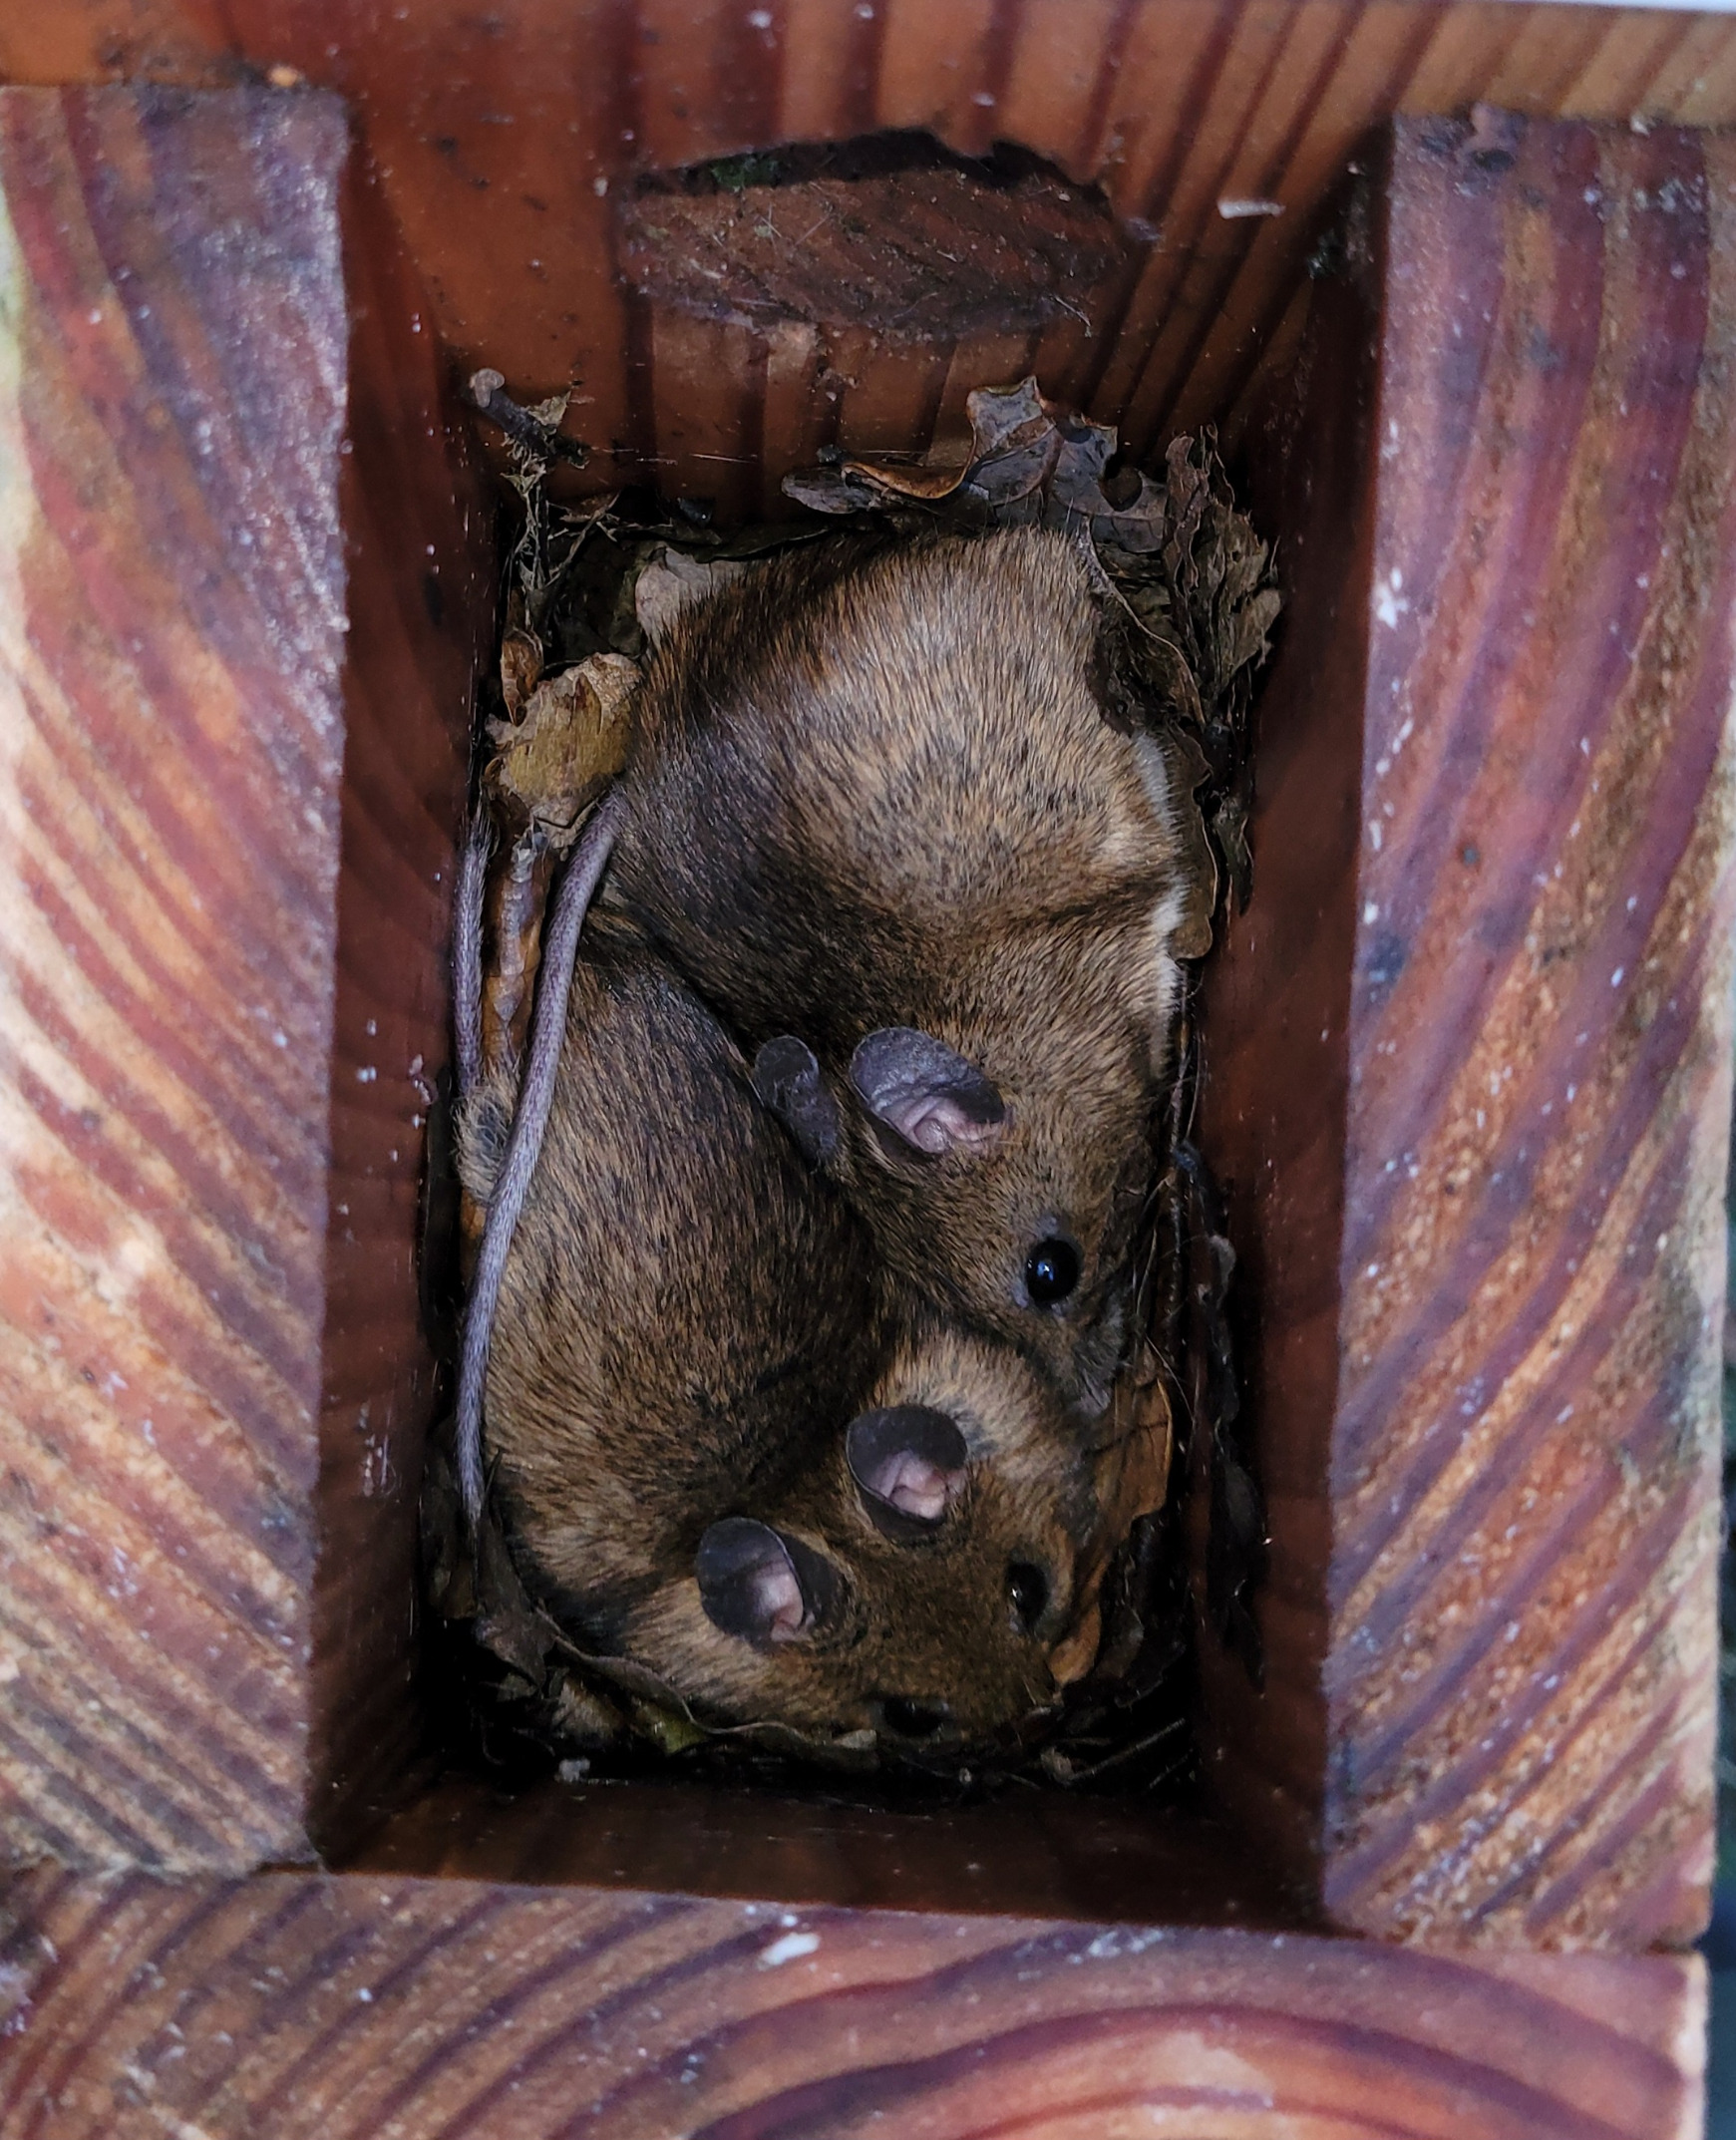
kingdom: Animalia
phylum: Chordata
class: Mammalia
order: Rodentia
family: Muridae
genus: Apodemus
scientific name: Apodemus flavicollis
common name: Halsbåndmus
